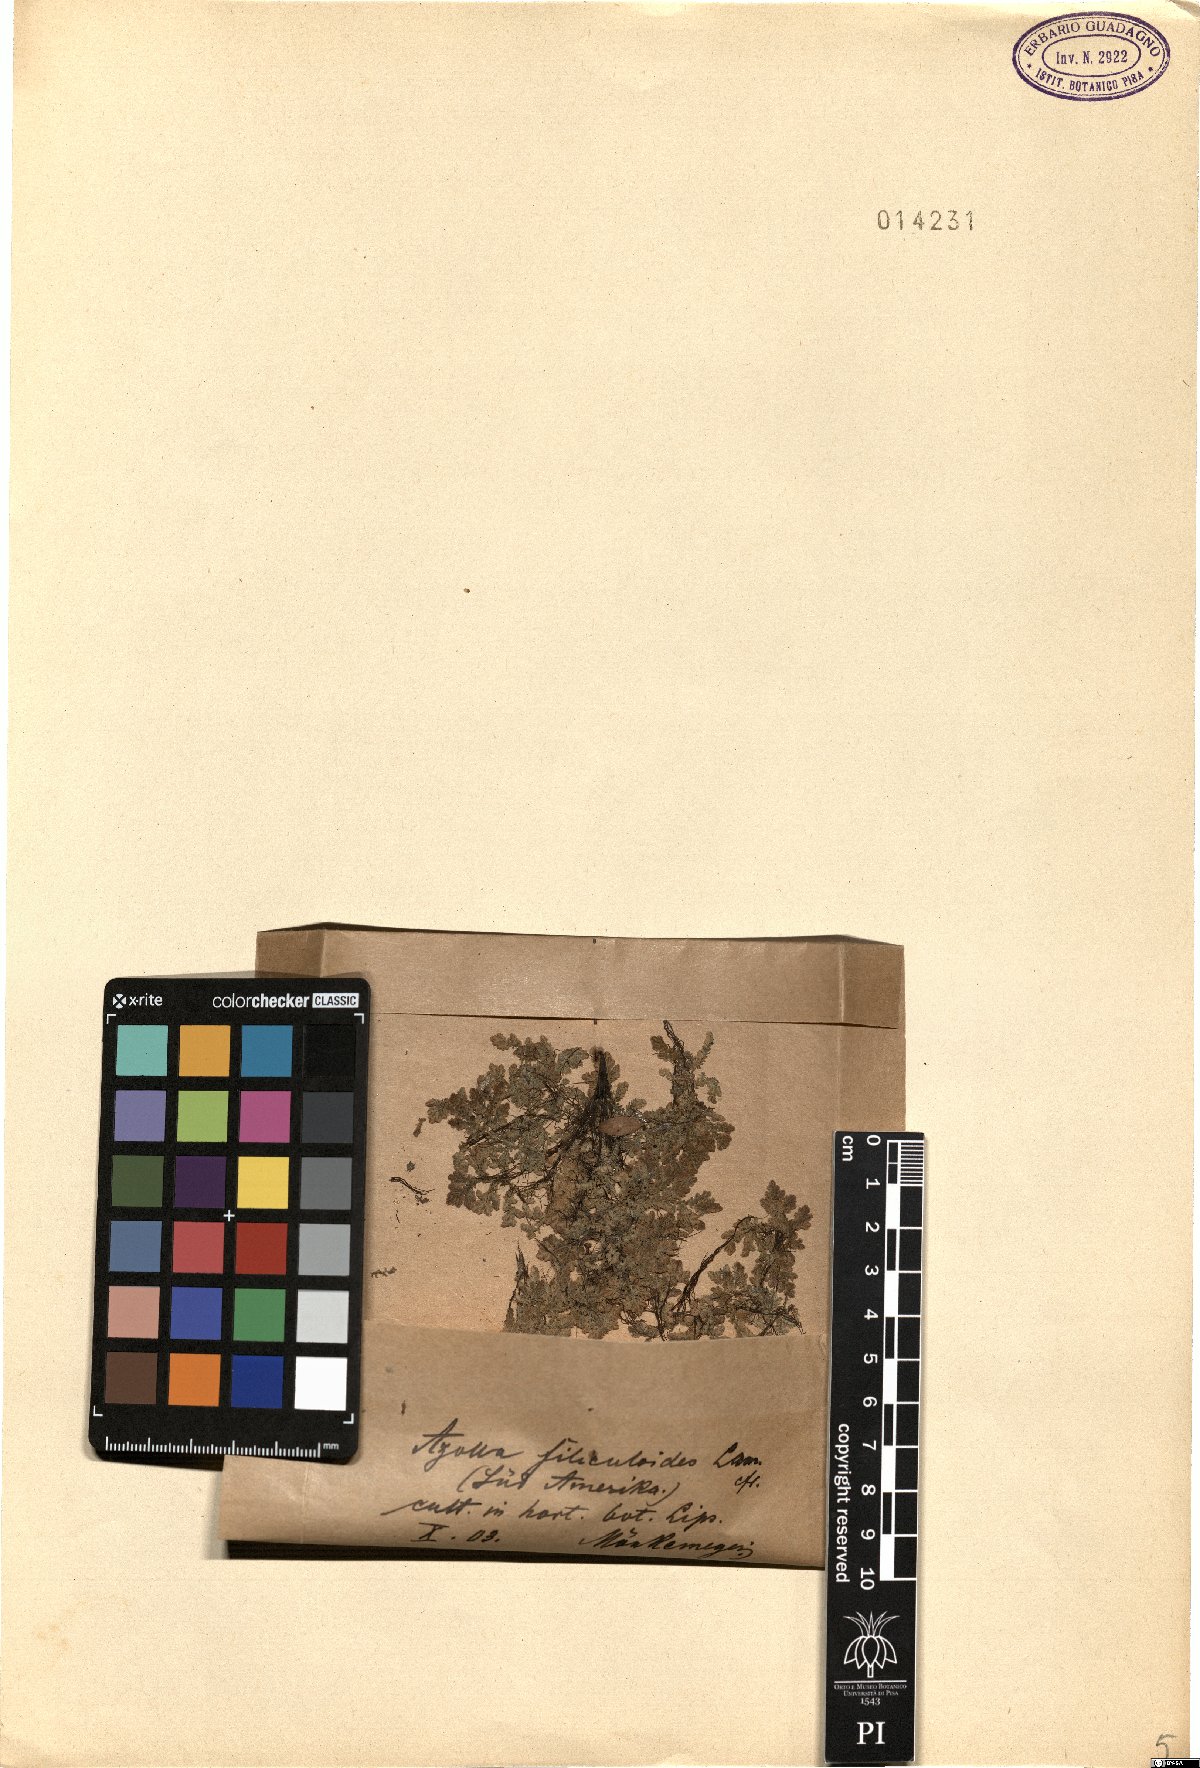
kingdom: Plantae
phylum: Tracheophyta
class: Polypodiopsida
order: Salviniales
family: Salviniaceae
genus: Azolla
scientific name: Azolla filiculoides
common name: Water fern
